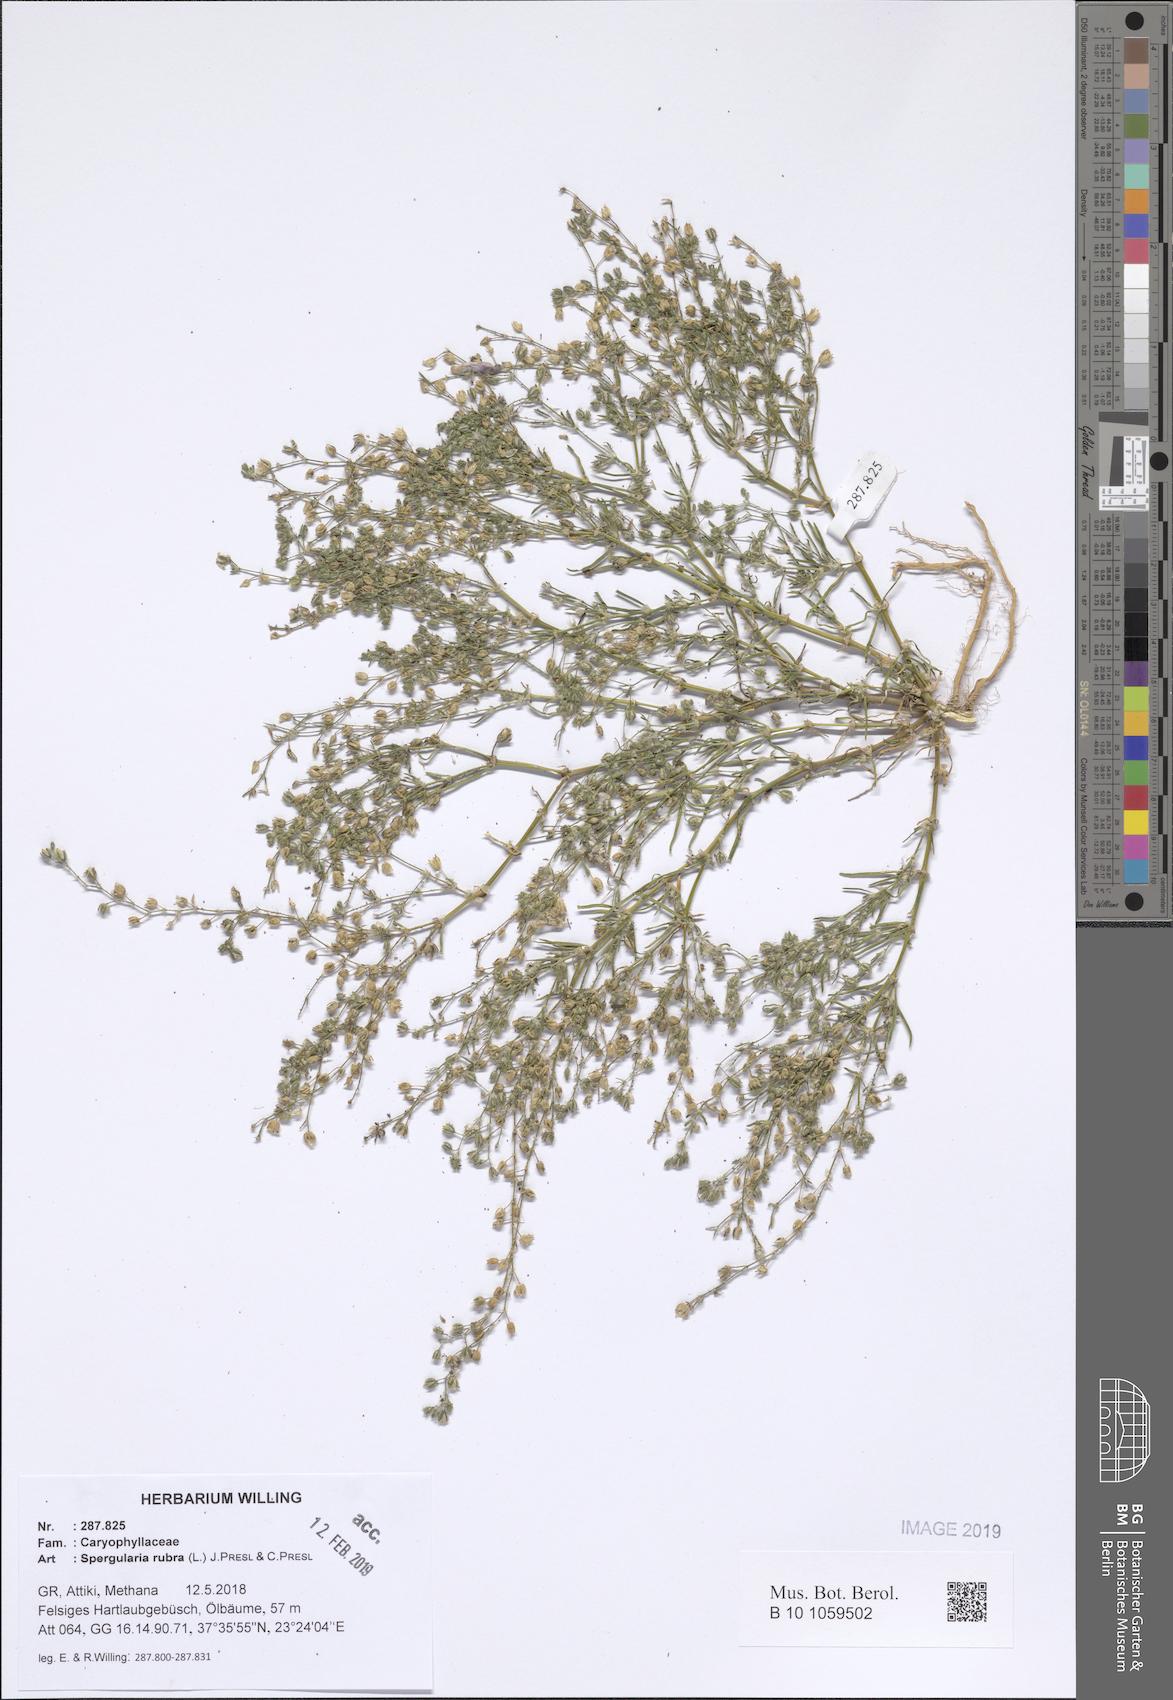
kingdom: Plantae
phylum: Tracheophyta
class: Magnoliopsida
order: Caryophyllales
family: Caryophyllaceae
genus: Spergularia
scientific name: Spergularia rubra
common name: Red sand-spurrey
